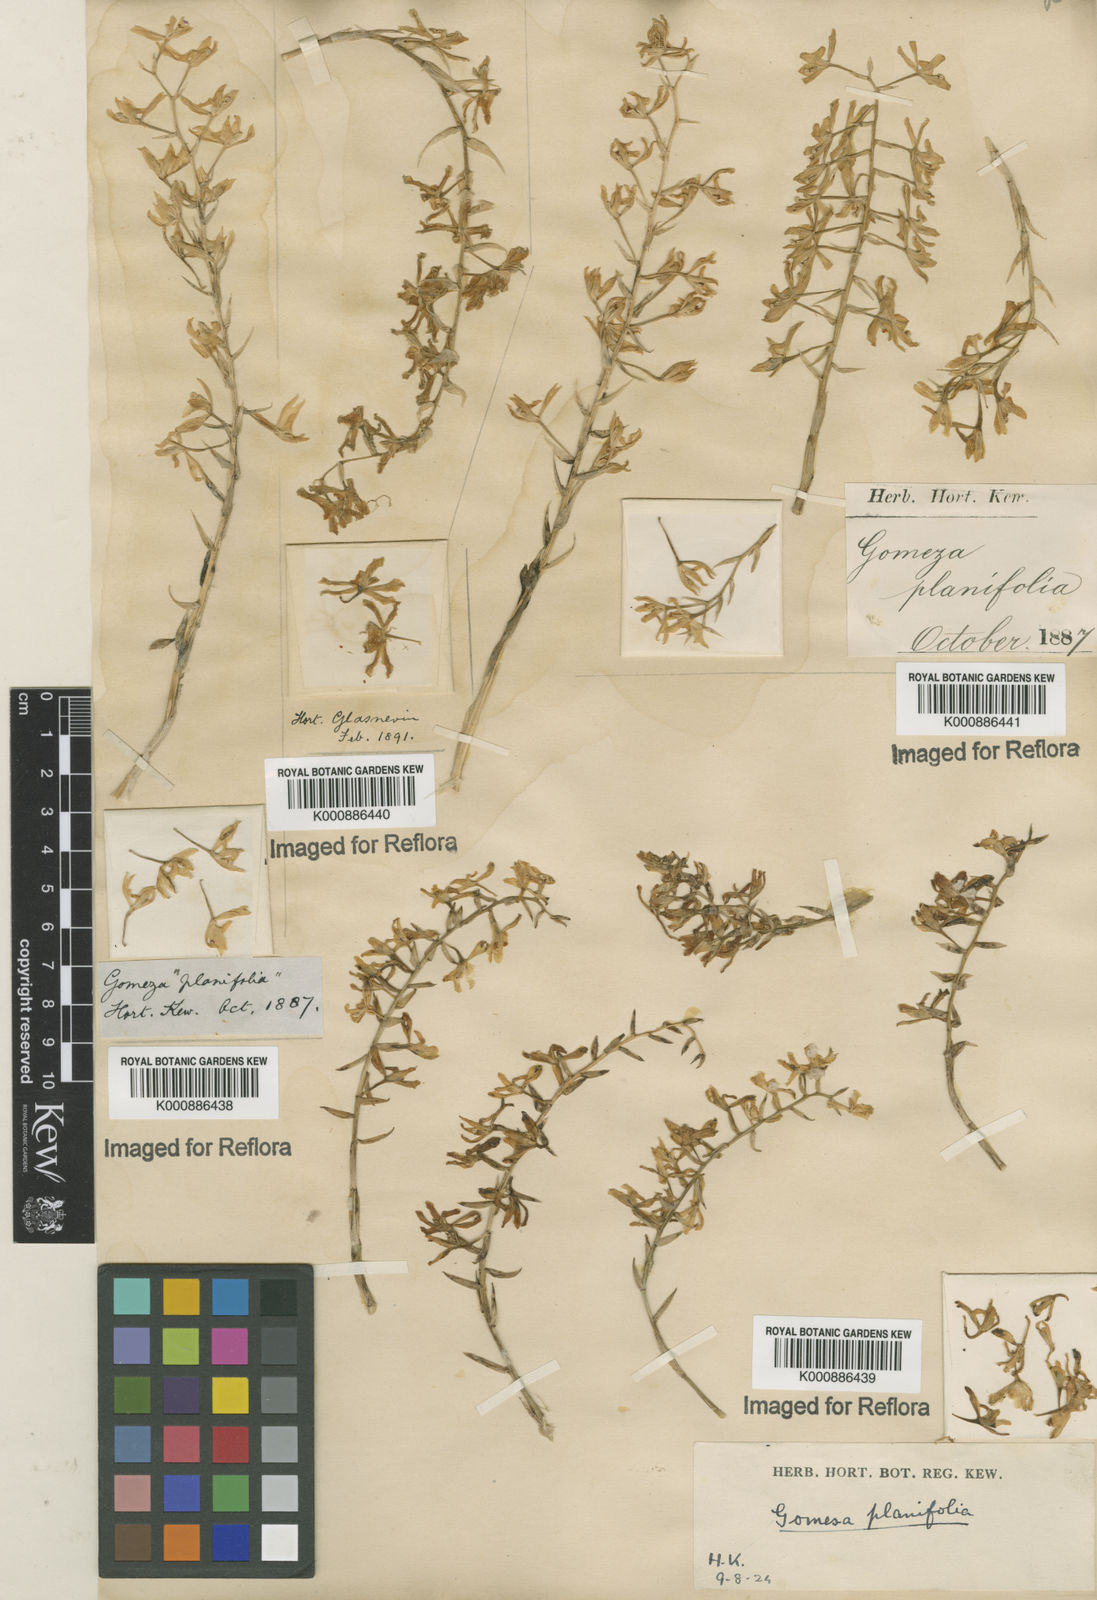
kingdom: Plantae
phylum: Tracheophyta
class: Liliopsida
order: Asparagales
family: Orchidaceae
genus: Gomesa
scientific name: Gomesa recurva
